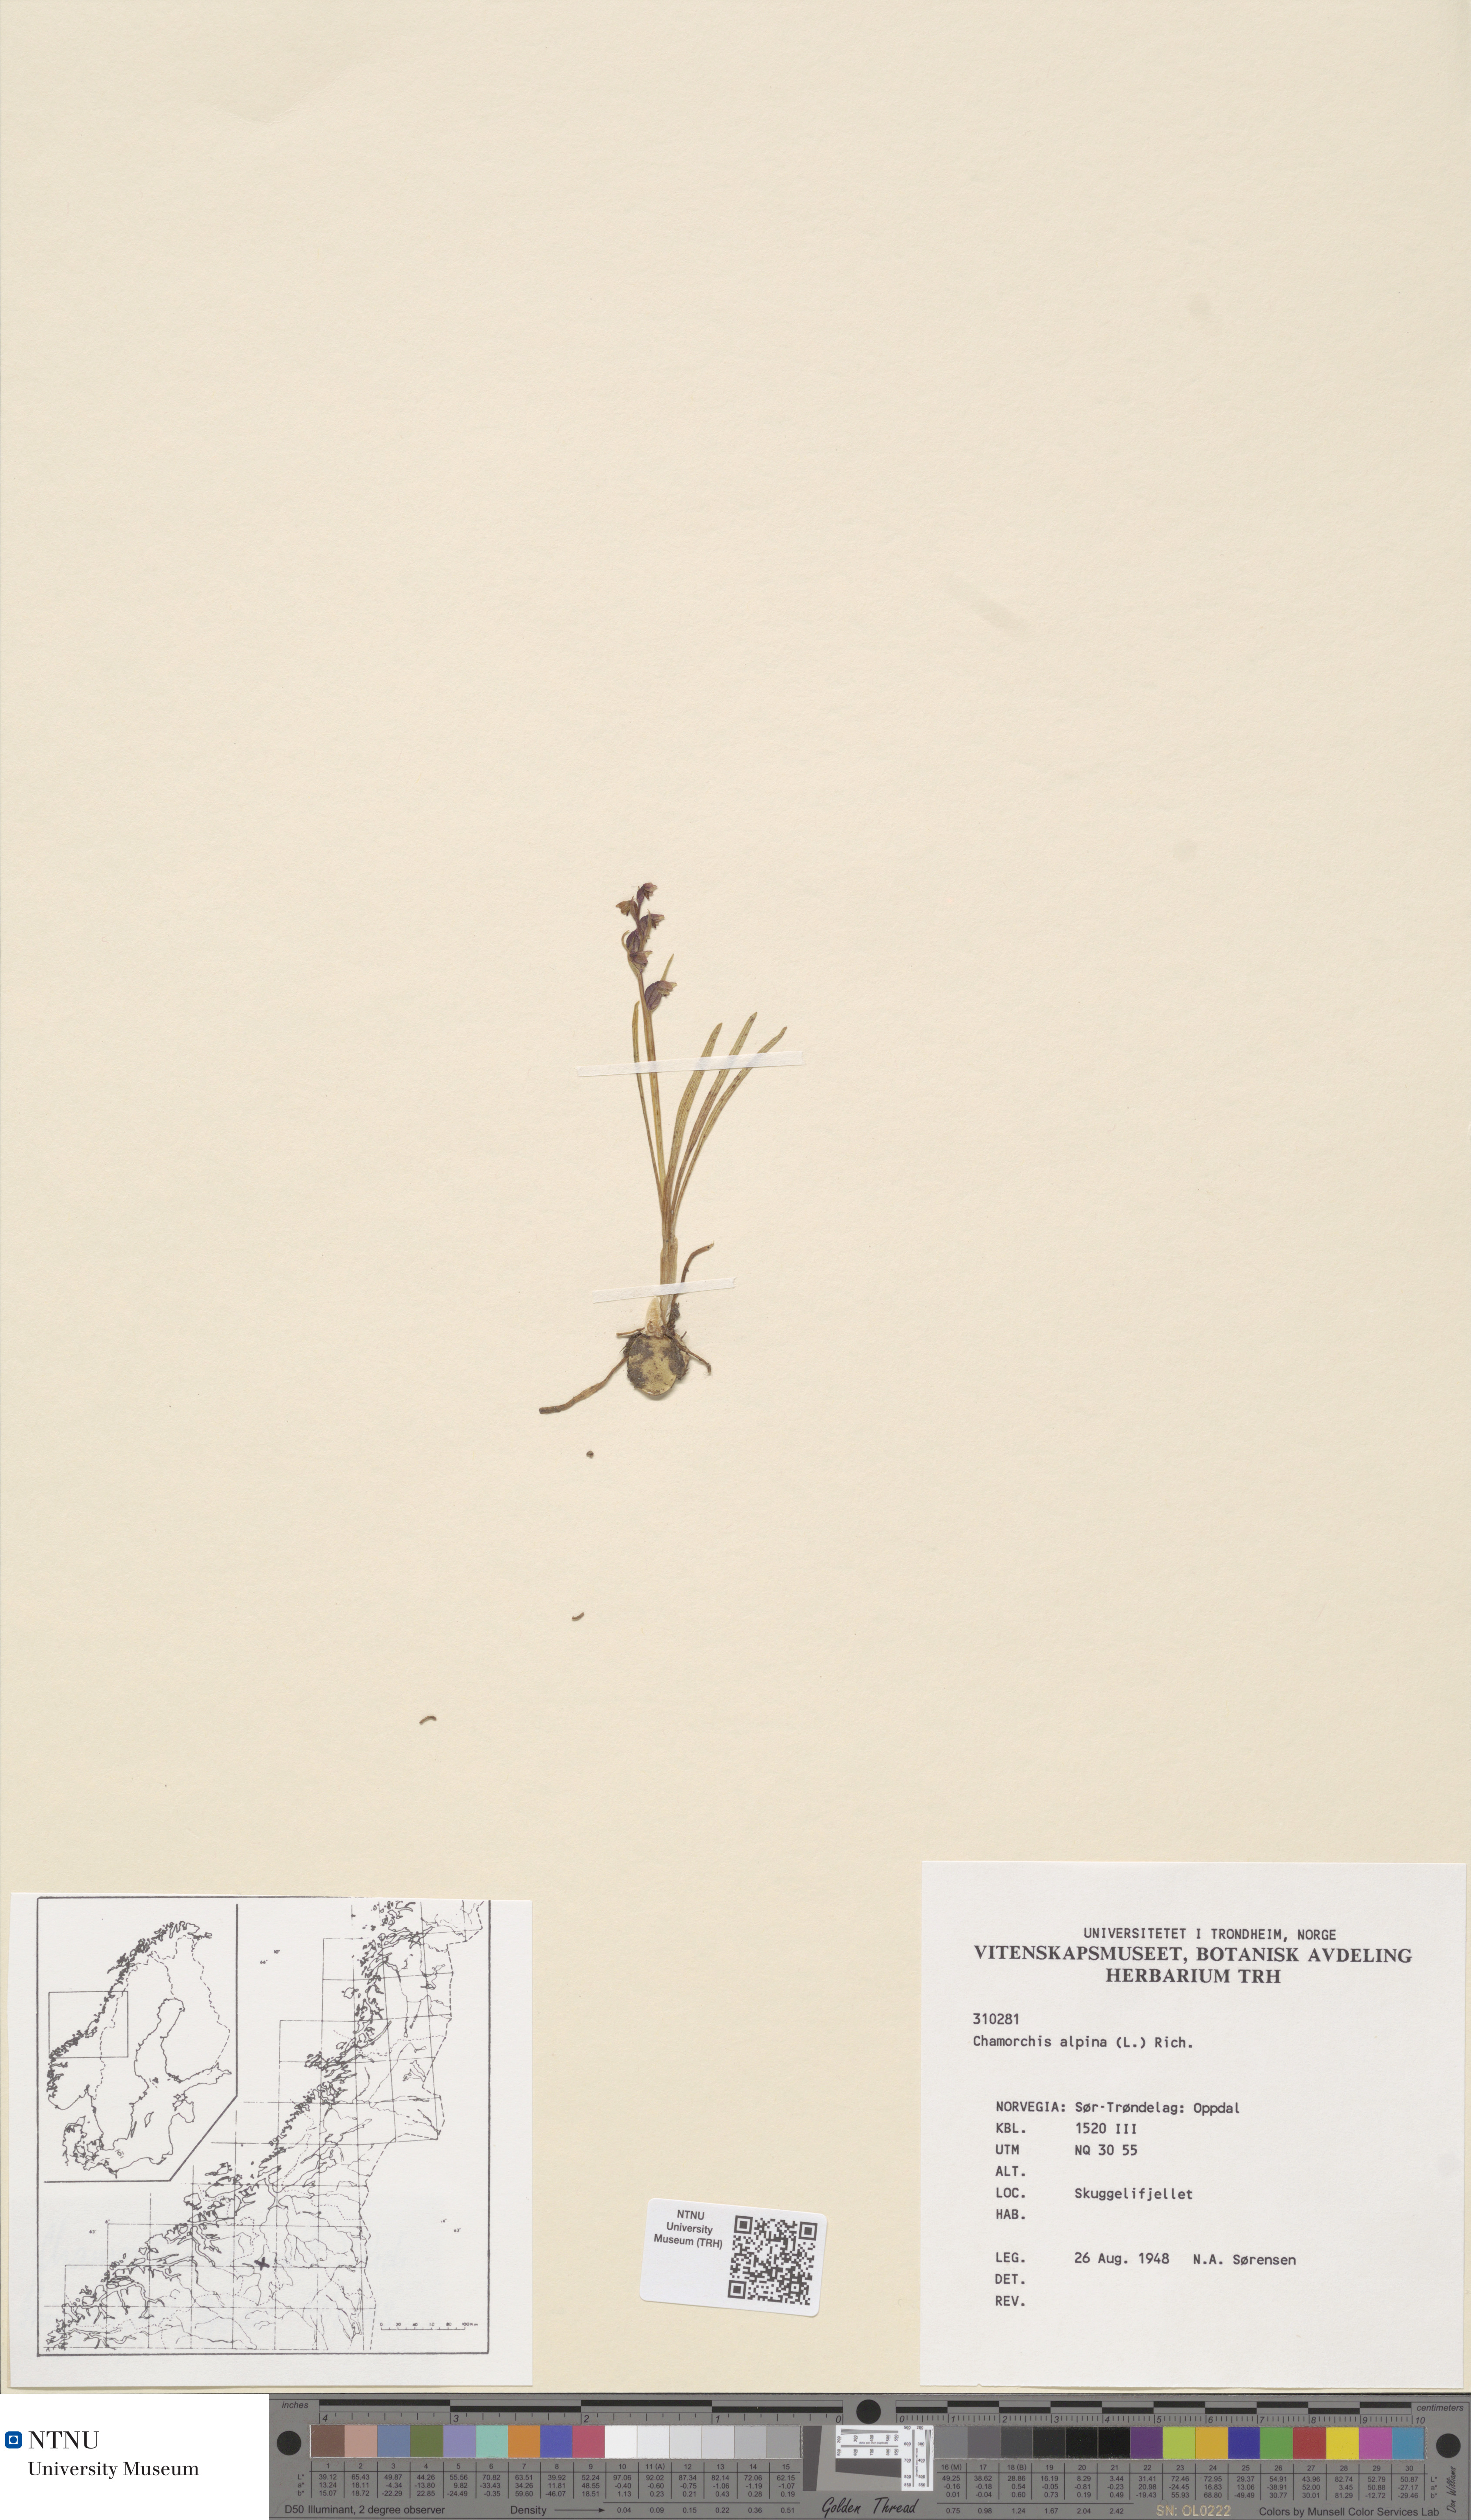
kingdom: Plantae
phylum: Tracheophyta
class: Liliopsida
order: Asparagales
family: Orchidaceae
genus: Chamorchis
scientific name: Chamorchis alpina
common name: Alpine chamorchis
